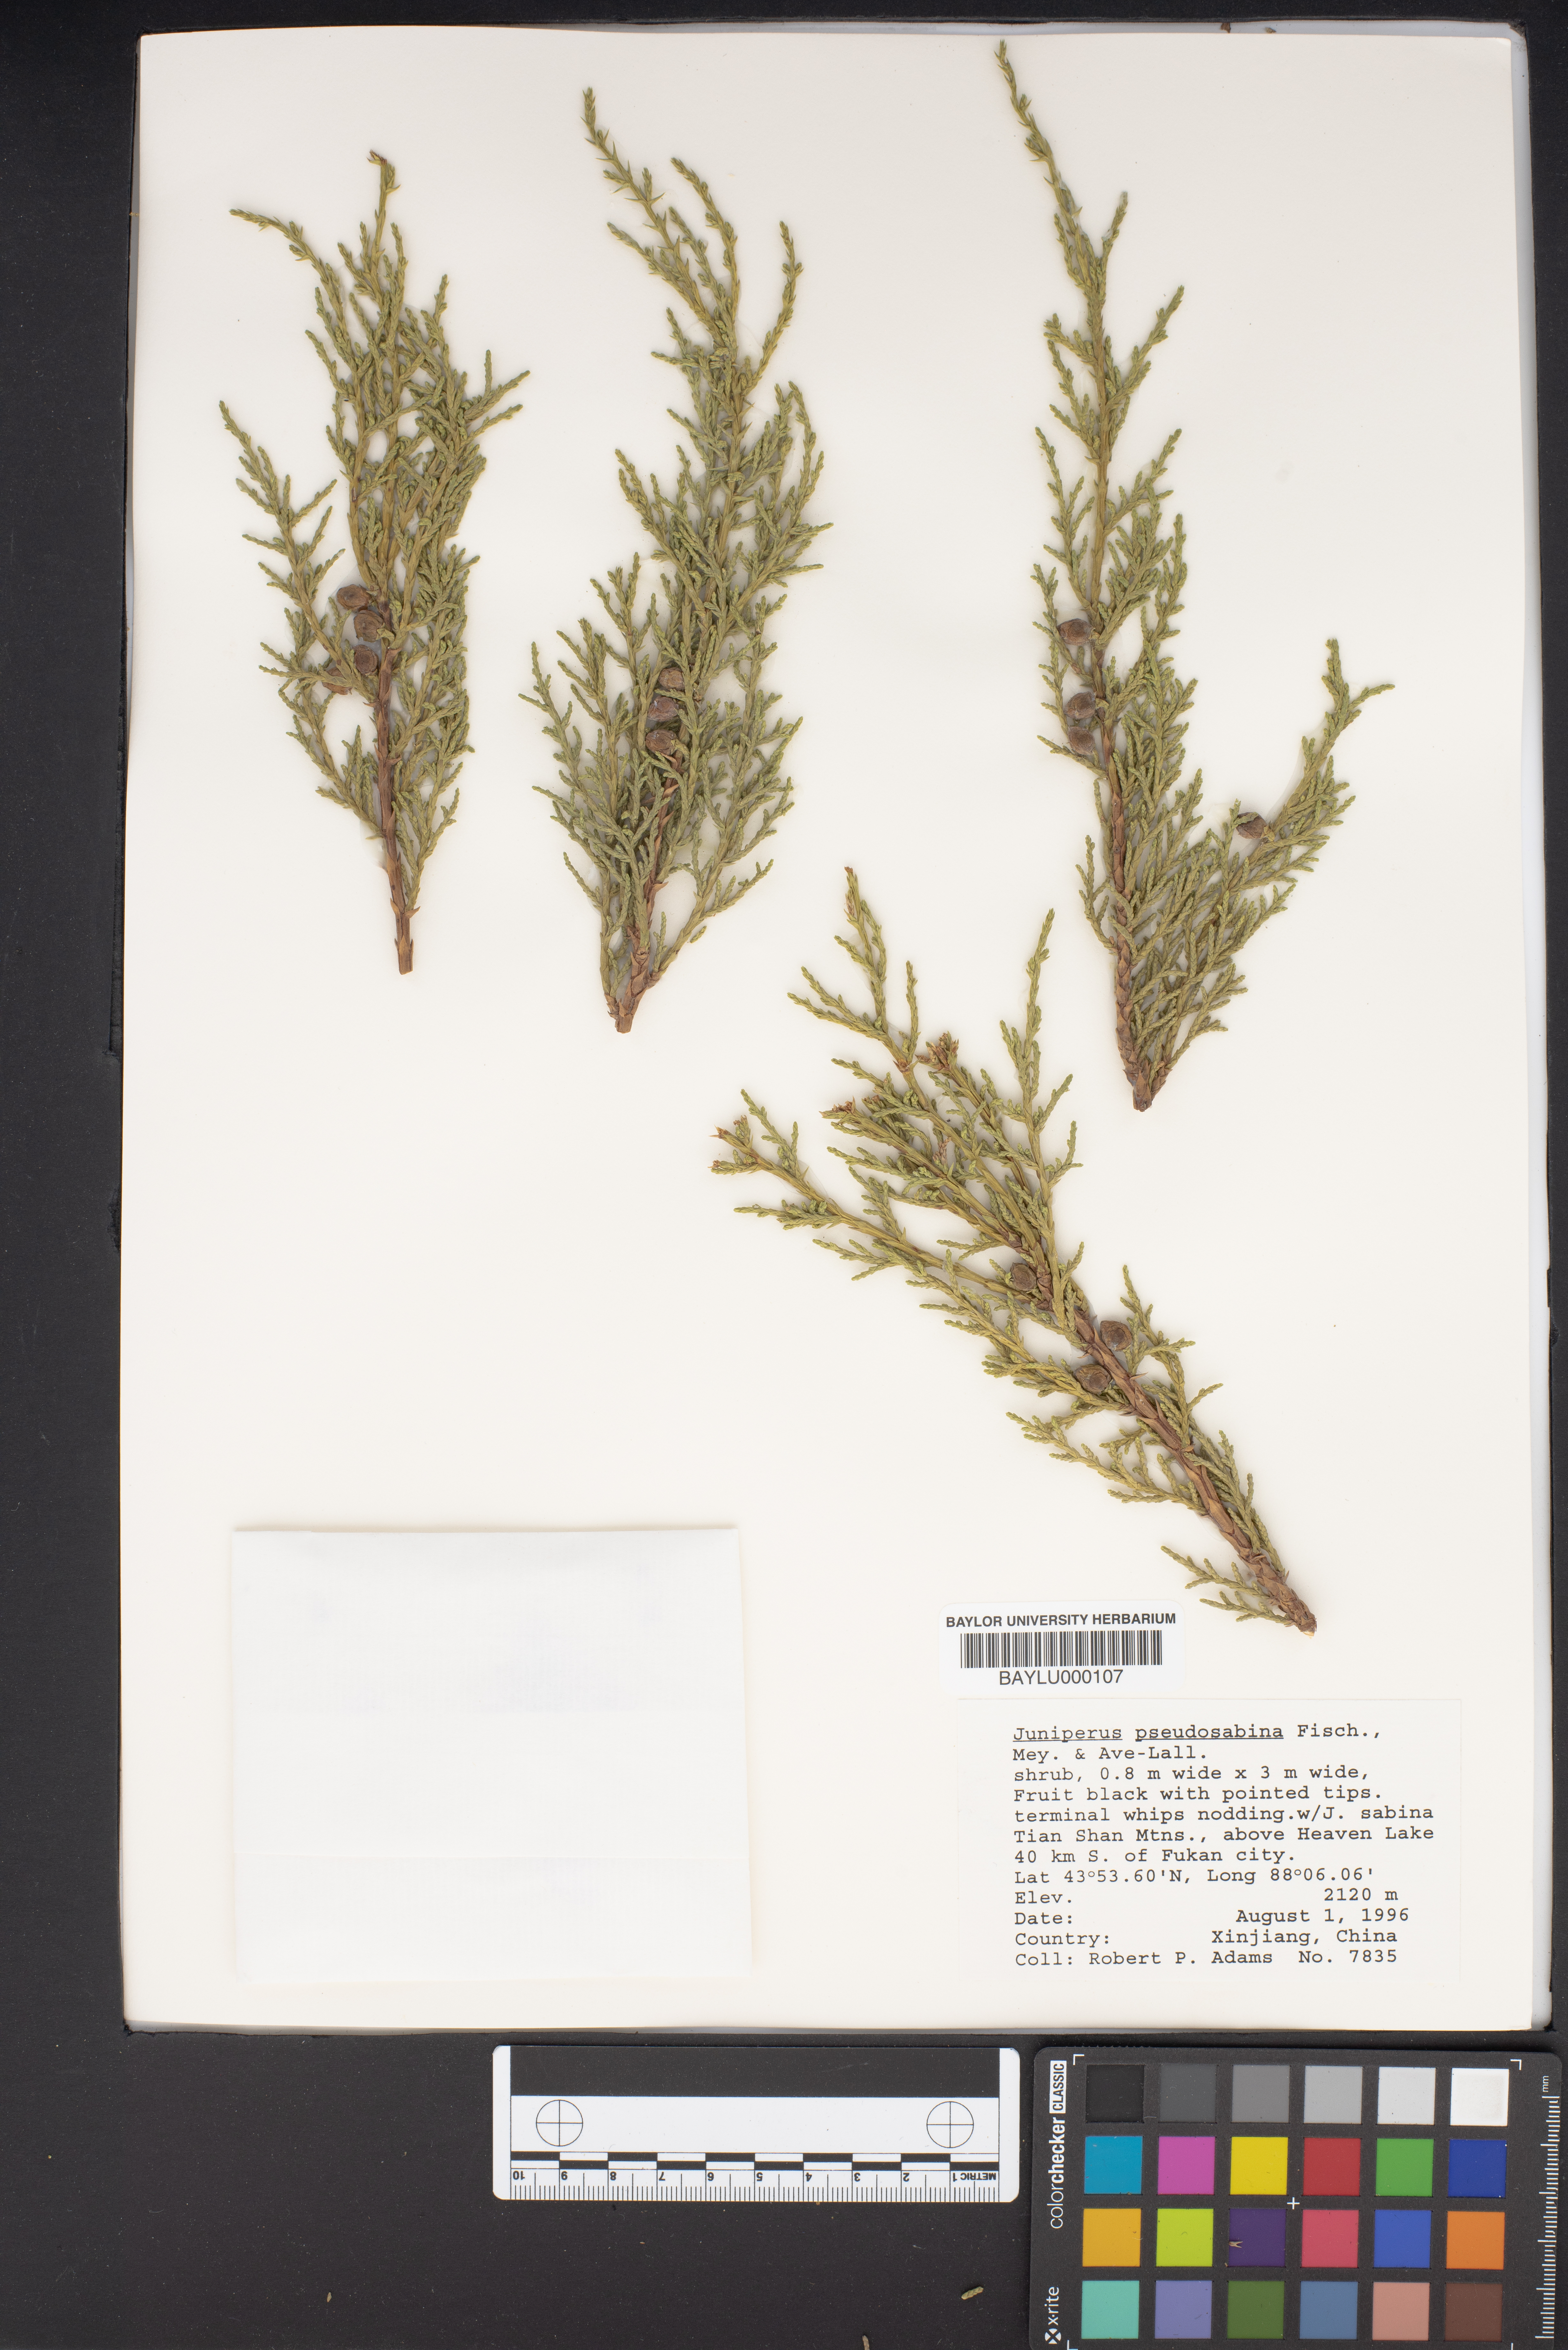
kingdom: Plantae
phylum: Tracheophyta
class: Pinopsida
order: Pinales
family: Cupressaceae
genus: Juniperus
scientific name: Juniperus pseudosabina
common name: Turkestan juniper
